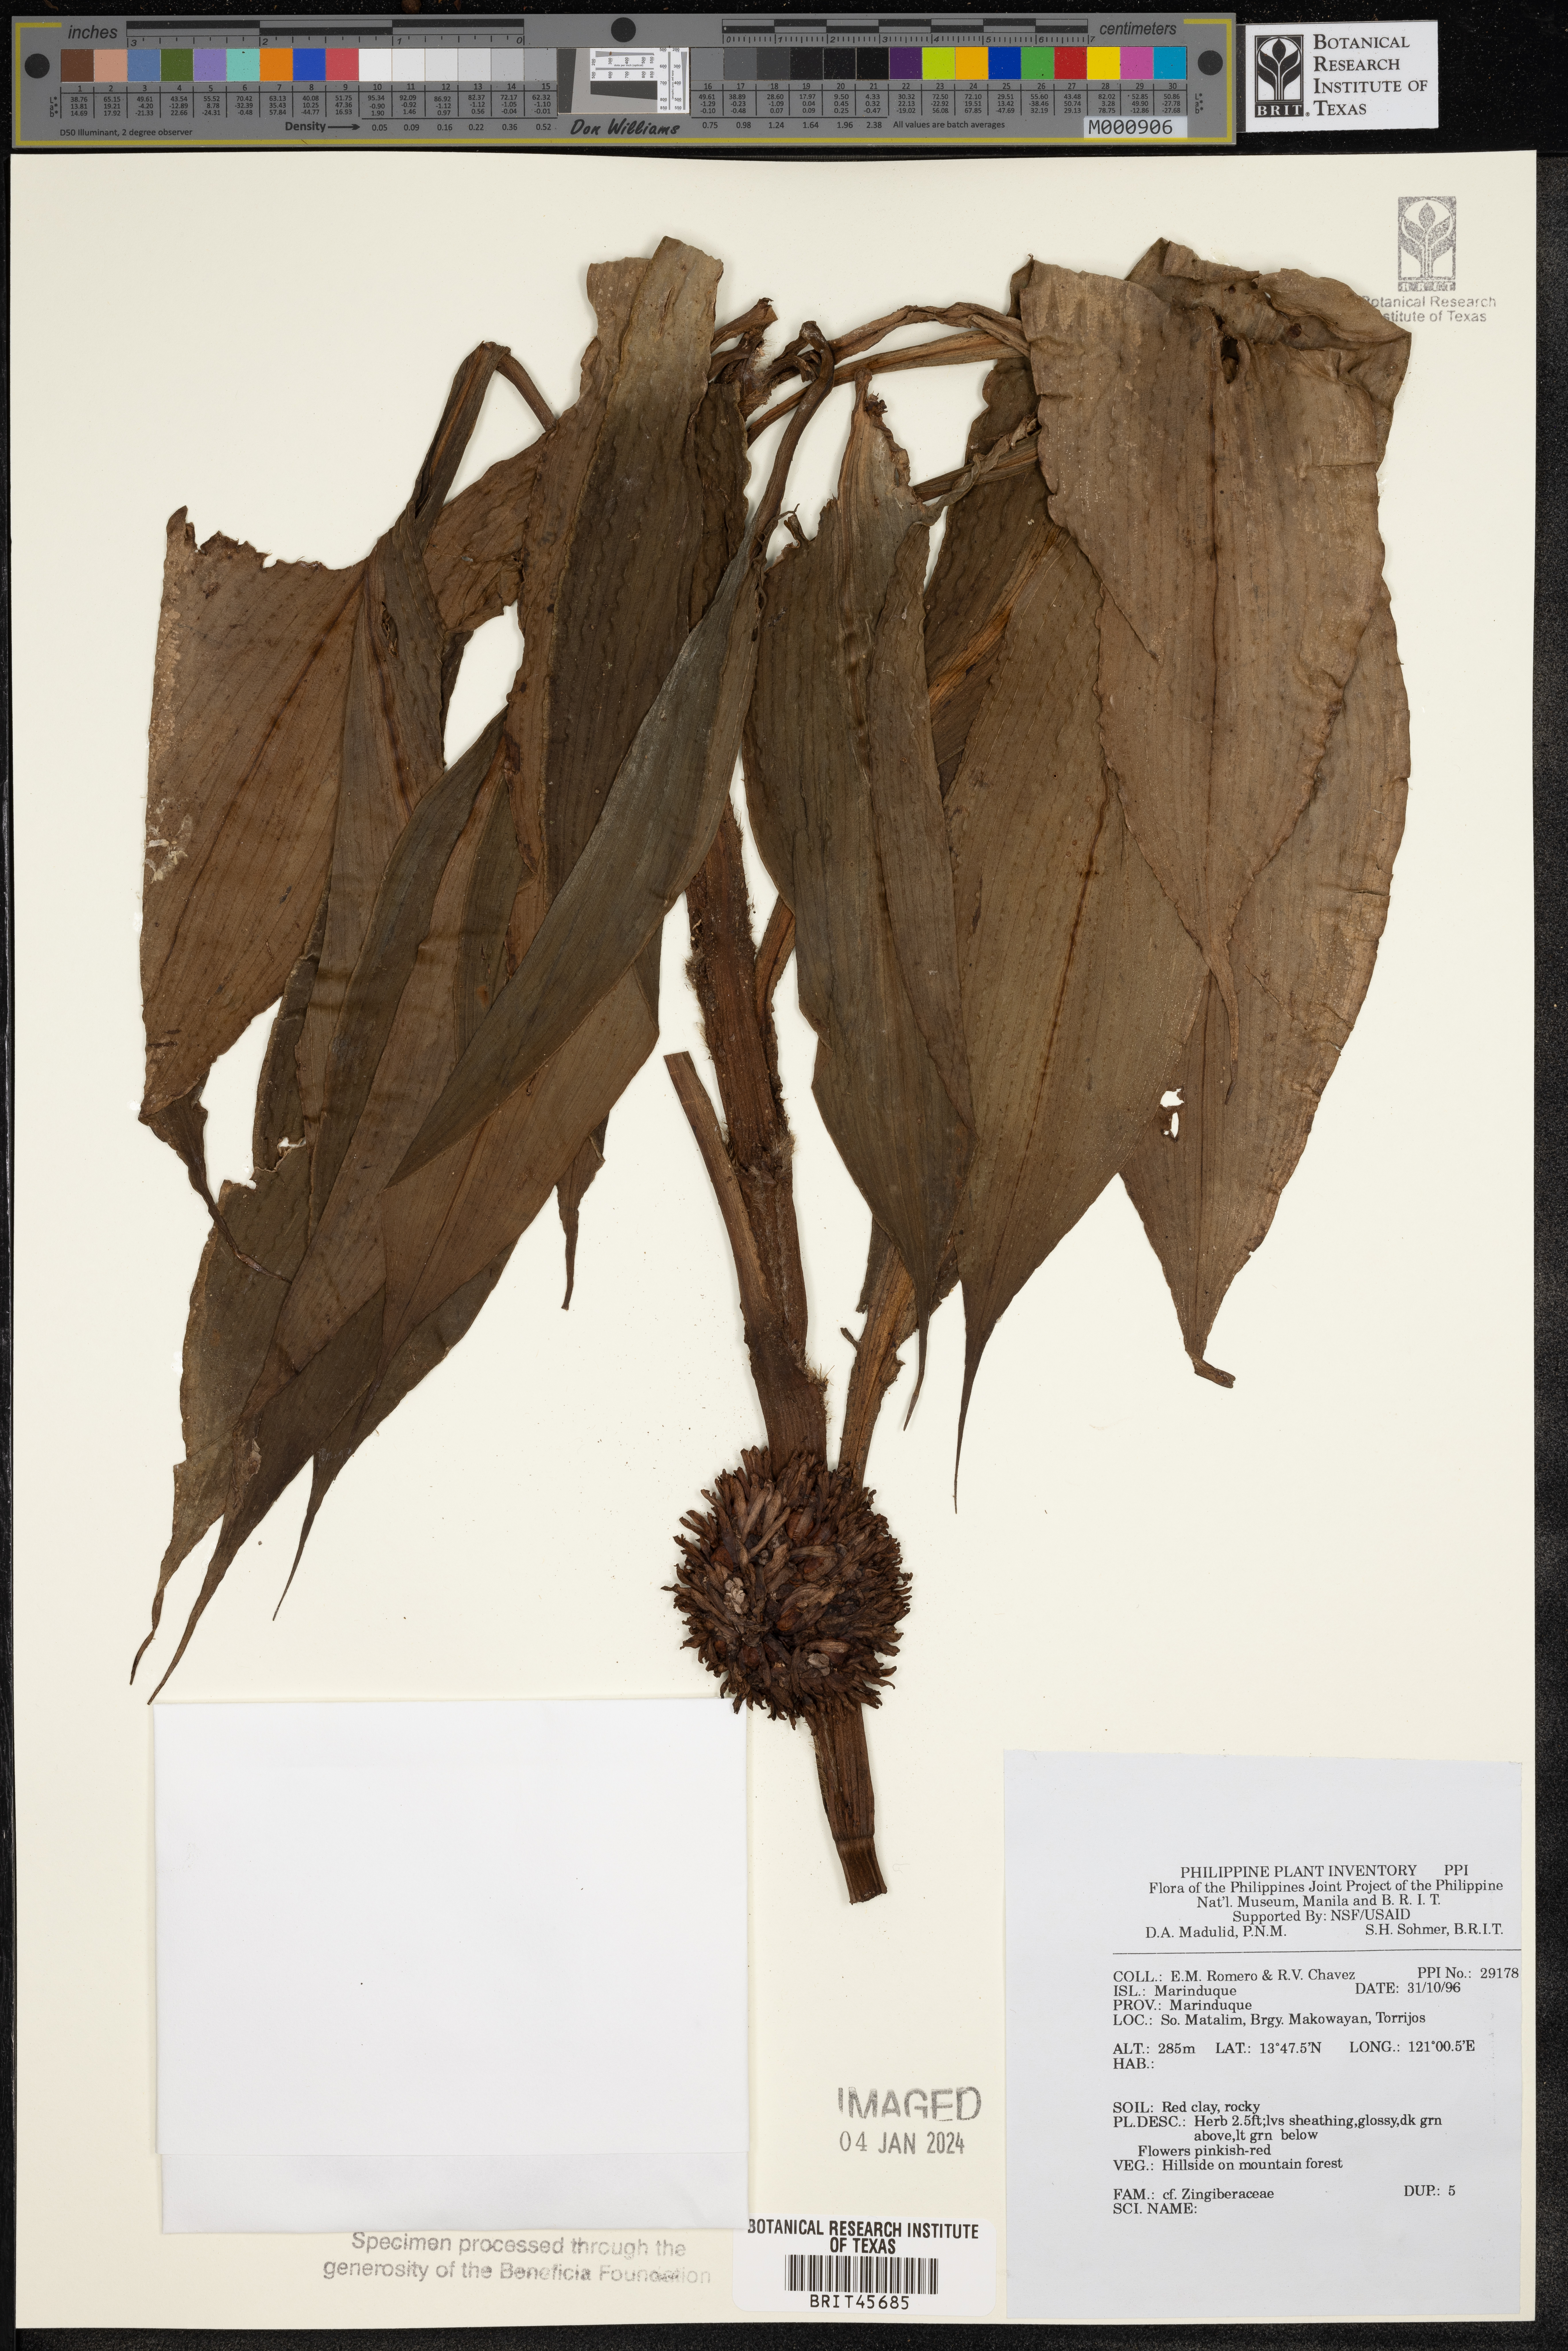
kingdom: Plantae
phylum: Tracheophyta
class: Liliopsida
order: Zingiberales
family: Zingiberaceae
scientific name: Zingiberaceae
